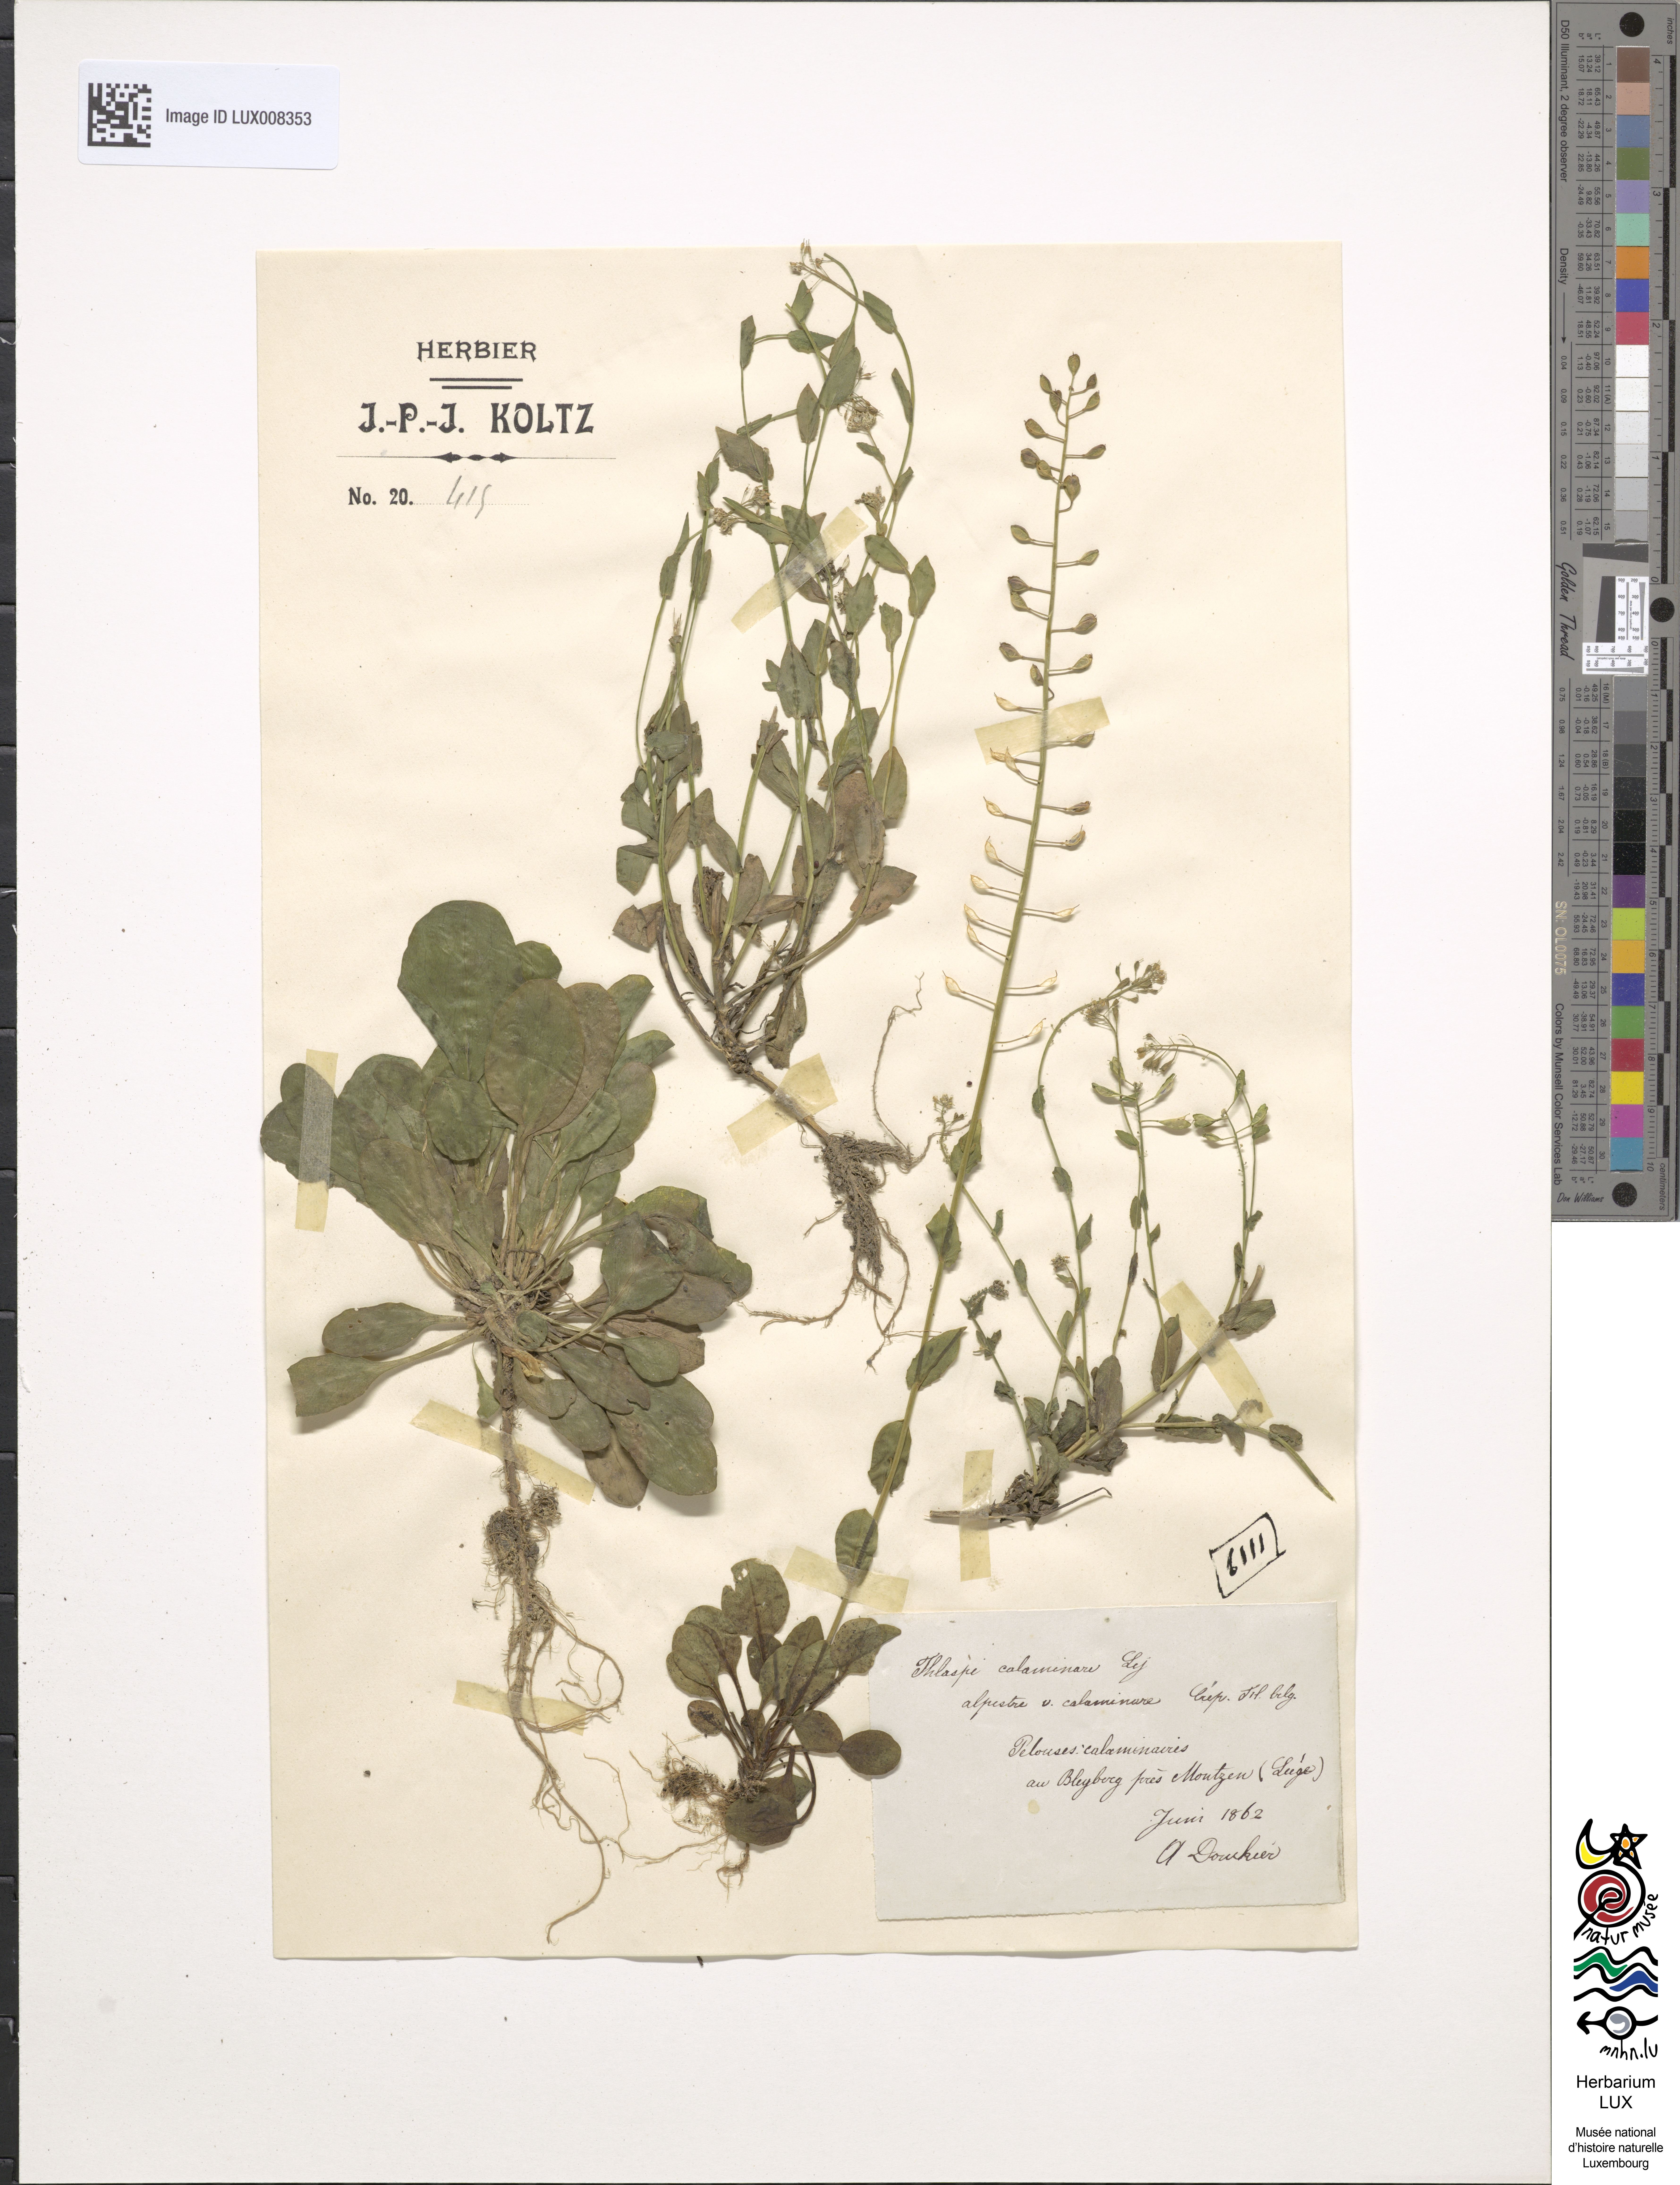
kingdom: Plantae
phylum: Tracheophyta
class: Magnoliopsida
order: Brassicales
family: Brassicaceae
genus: Noccaea
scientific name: Noccaea caerulescens
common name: Alpine pennycress
